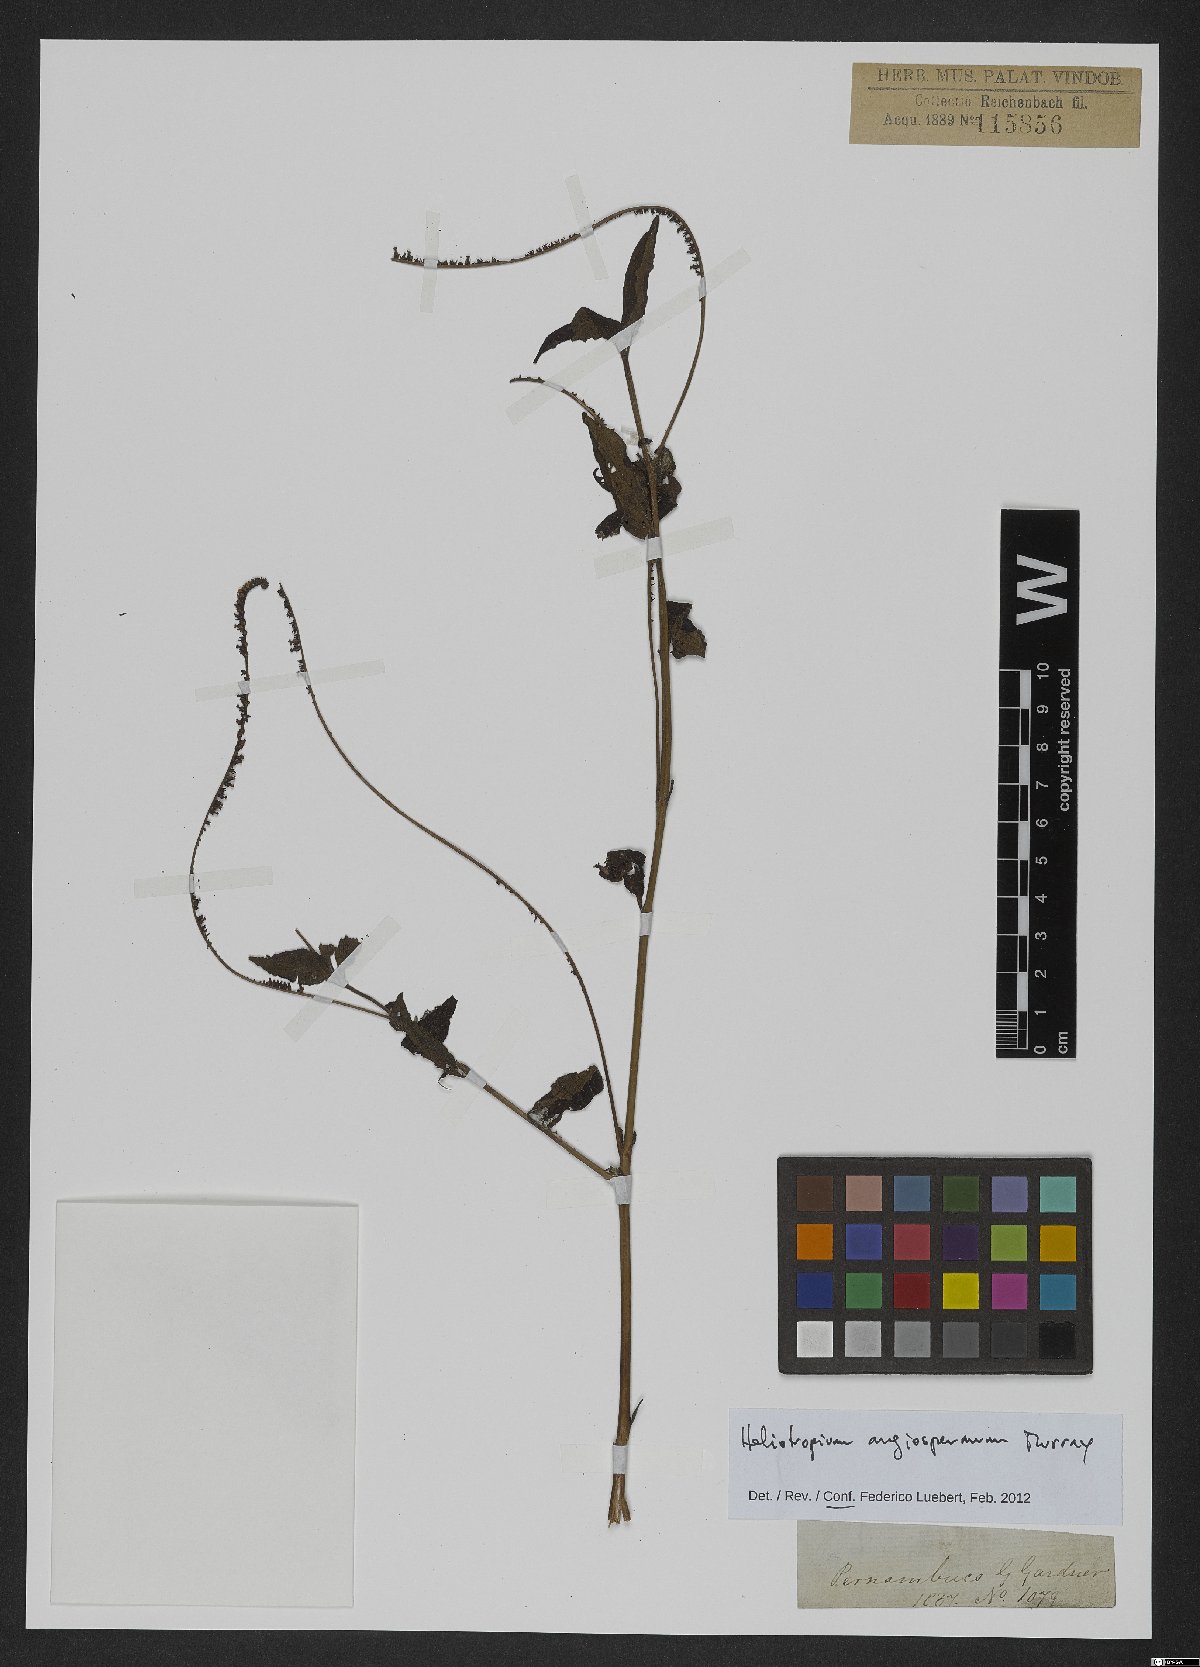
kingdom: Plantae
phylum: Tracheophyta
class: Magnoliopsida
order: Boraginales
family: Heliotropiaceae
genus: Heliotropium
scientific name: Heliotropium angiospermum
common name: Eye bright
